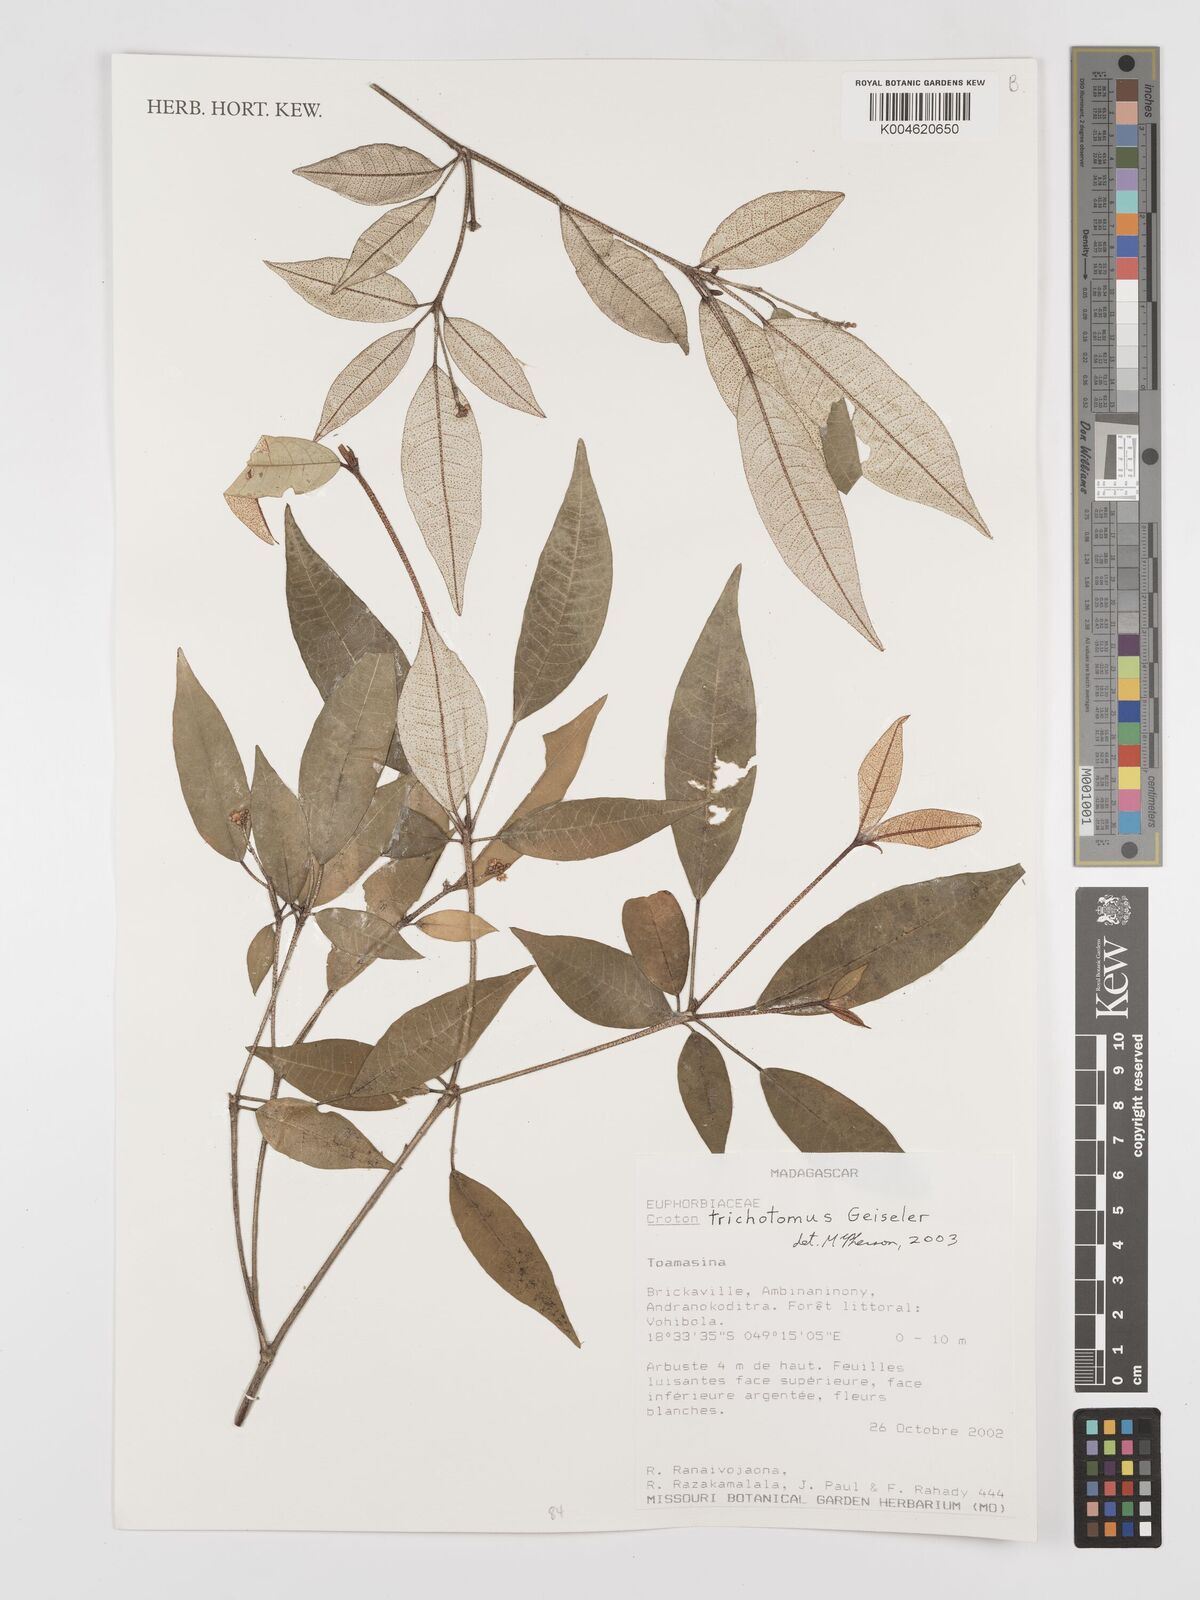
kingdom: Plantae
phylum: Tracheophyta
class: Magnoliopsida
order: Malpighiales
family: Euphorbiaceae
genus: Croton
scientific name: Croton trichotomus
